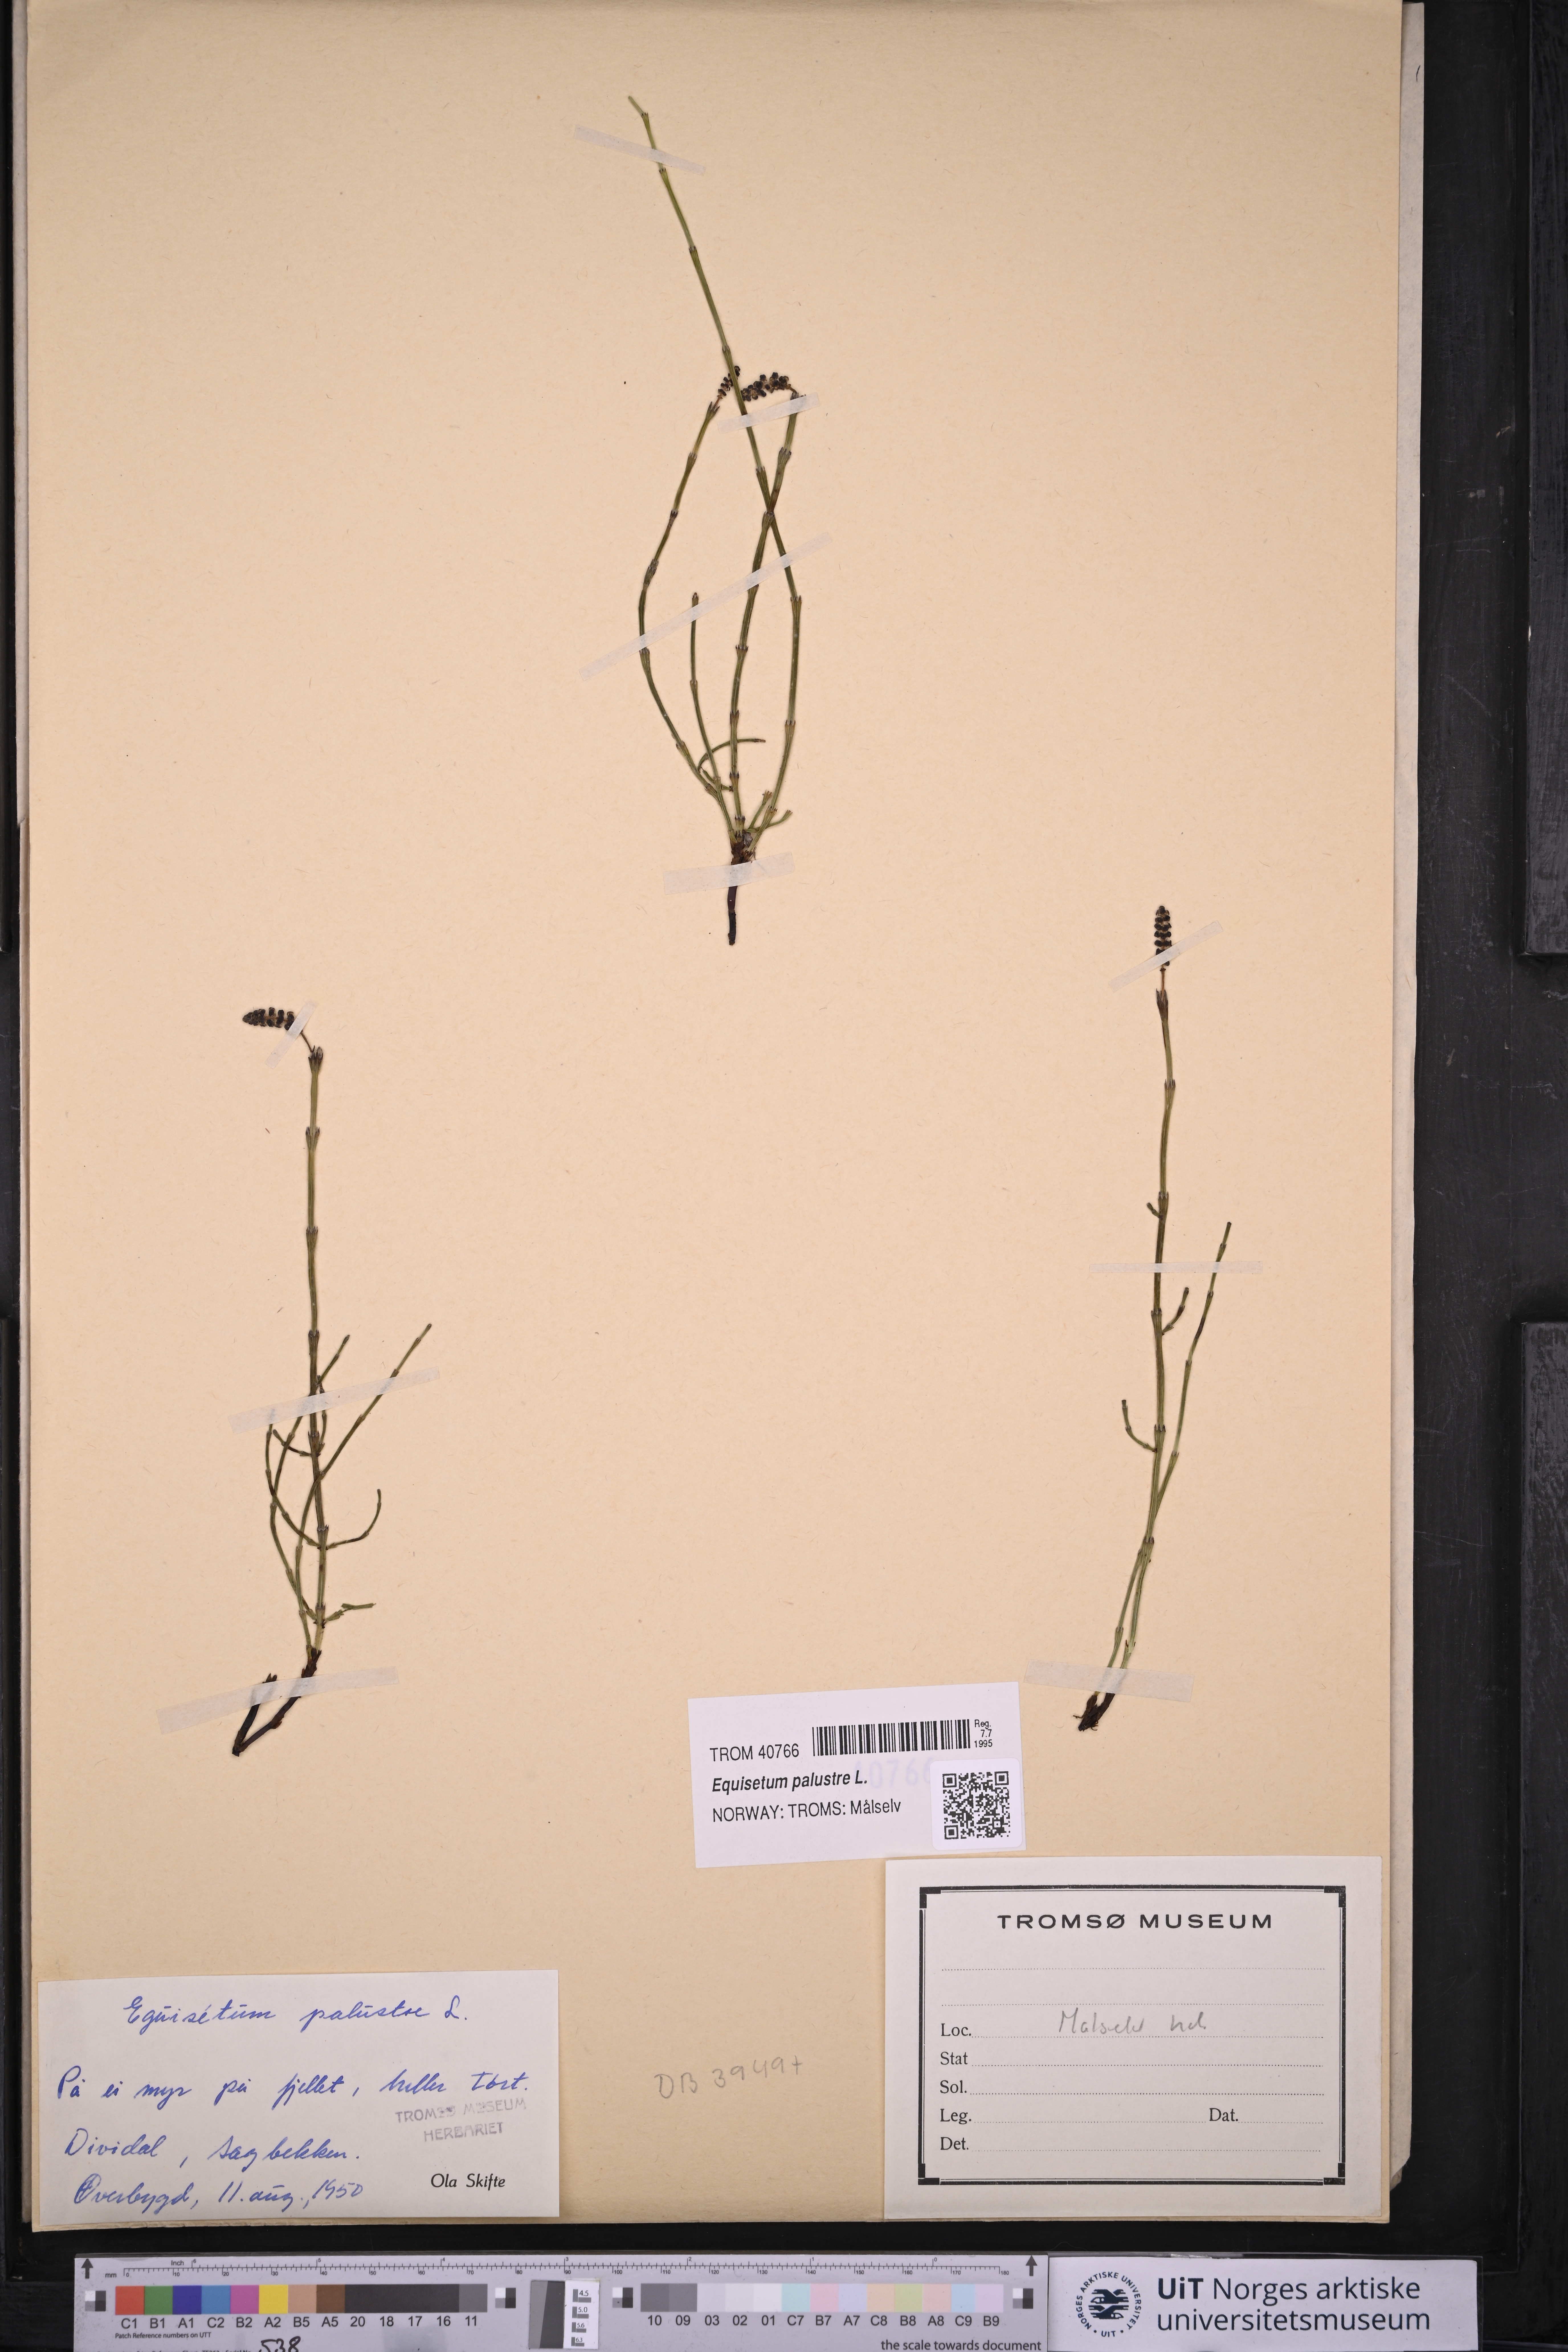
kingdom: Plantae
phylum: Tracheophyta
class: Polypodiopsida
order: Equisetales
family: Equisetaceae
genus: Equisetum
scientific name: Equisetum palustre
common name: Marsh horsetail
